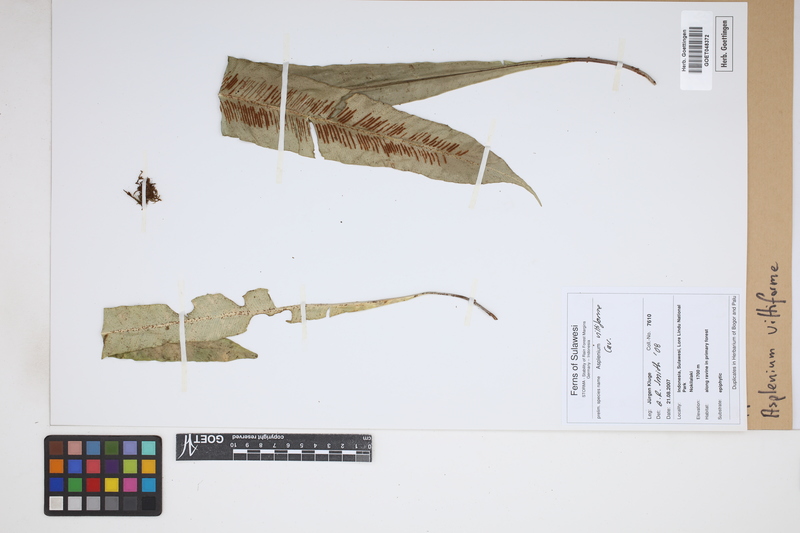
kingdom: Plantae
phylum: Tracheophyta
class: Polypodiopsida
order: Polypodiales
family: Aspleniaceae
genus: Asplenium
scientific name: Asplenium vittaeforme
